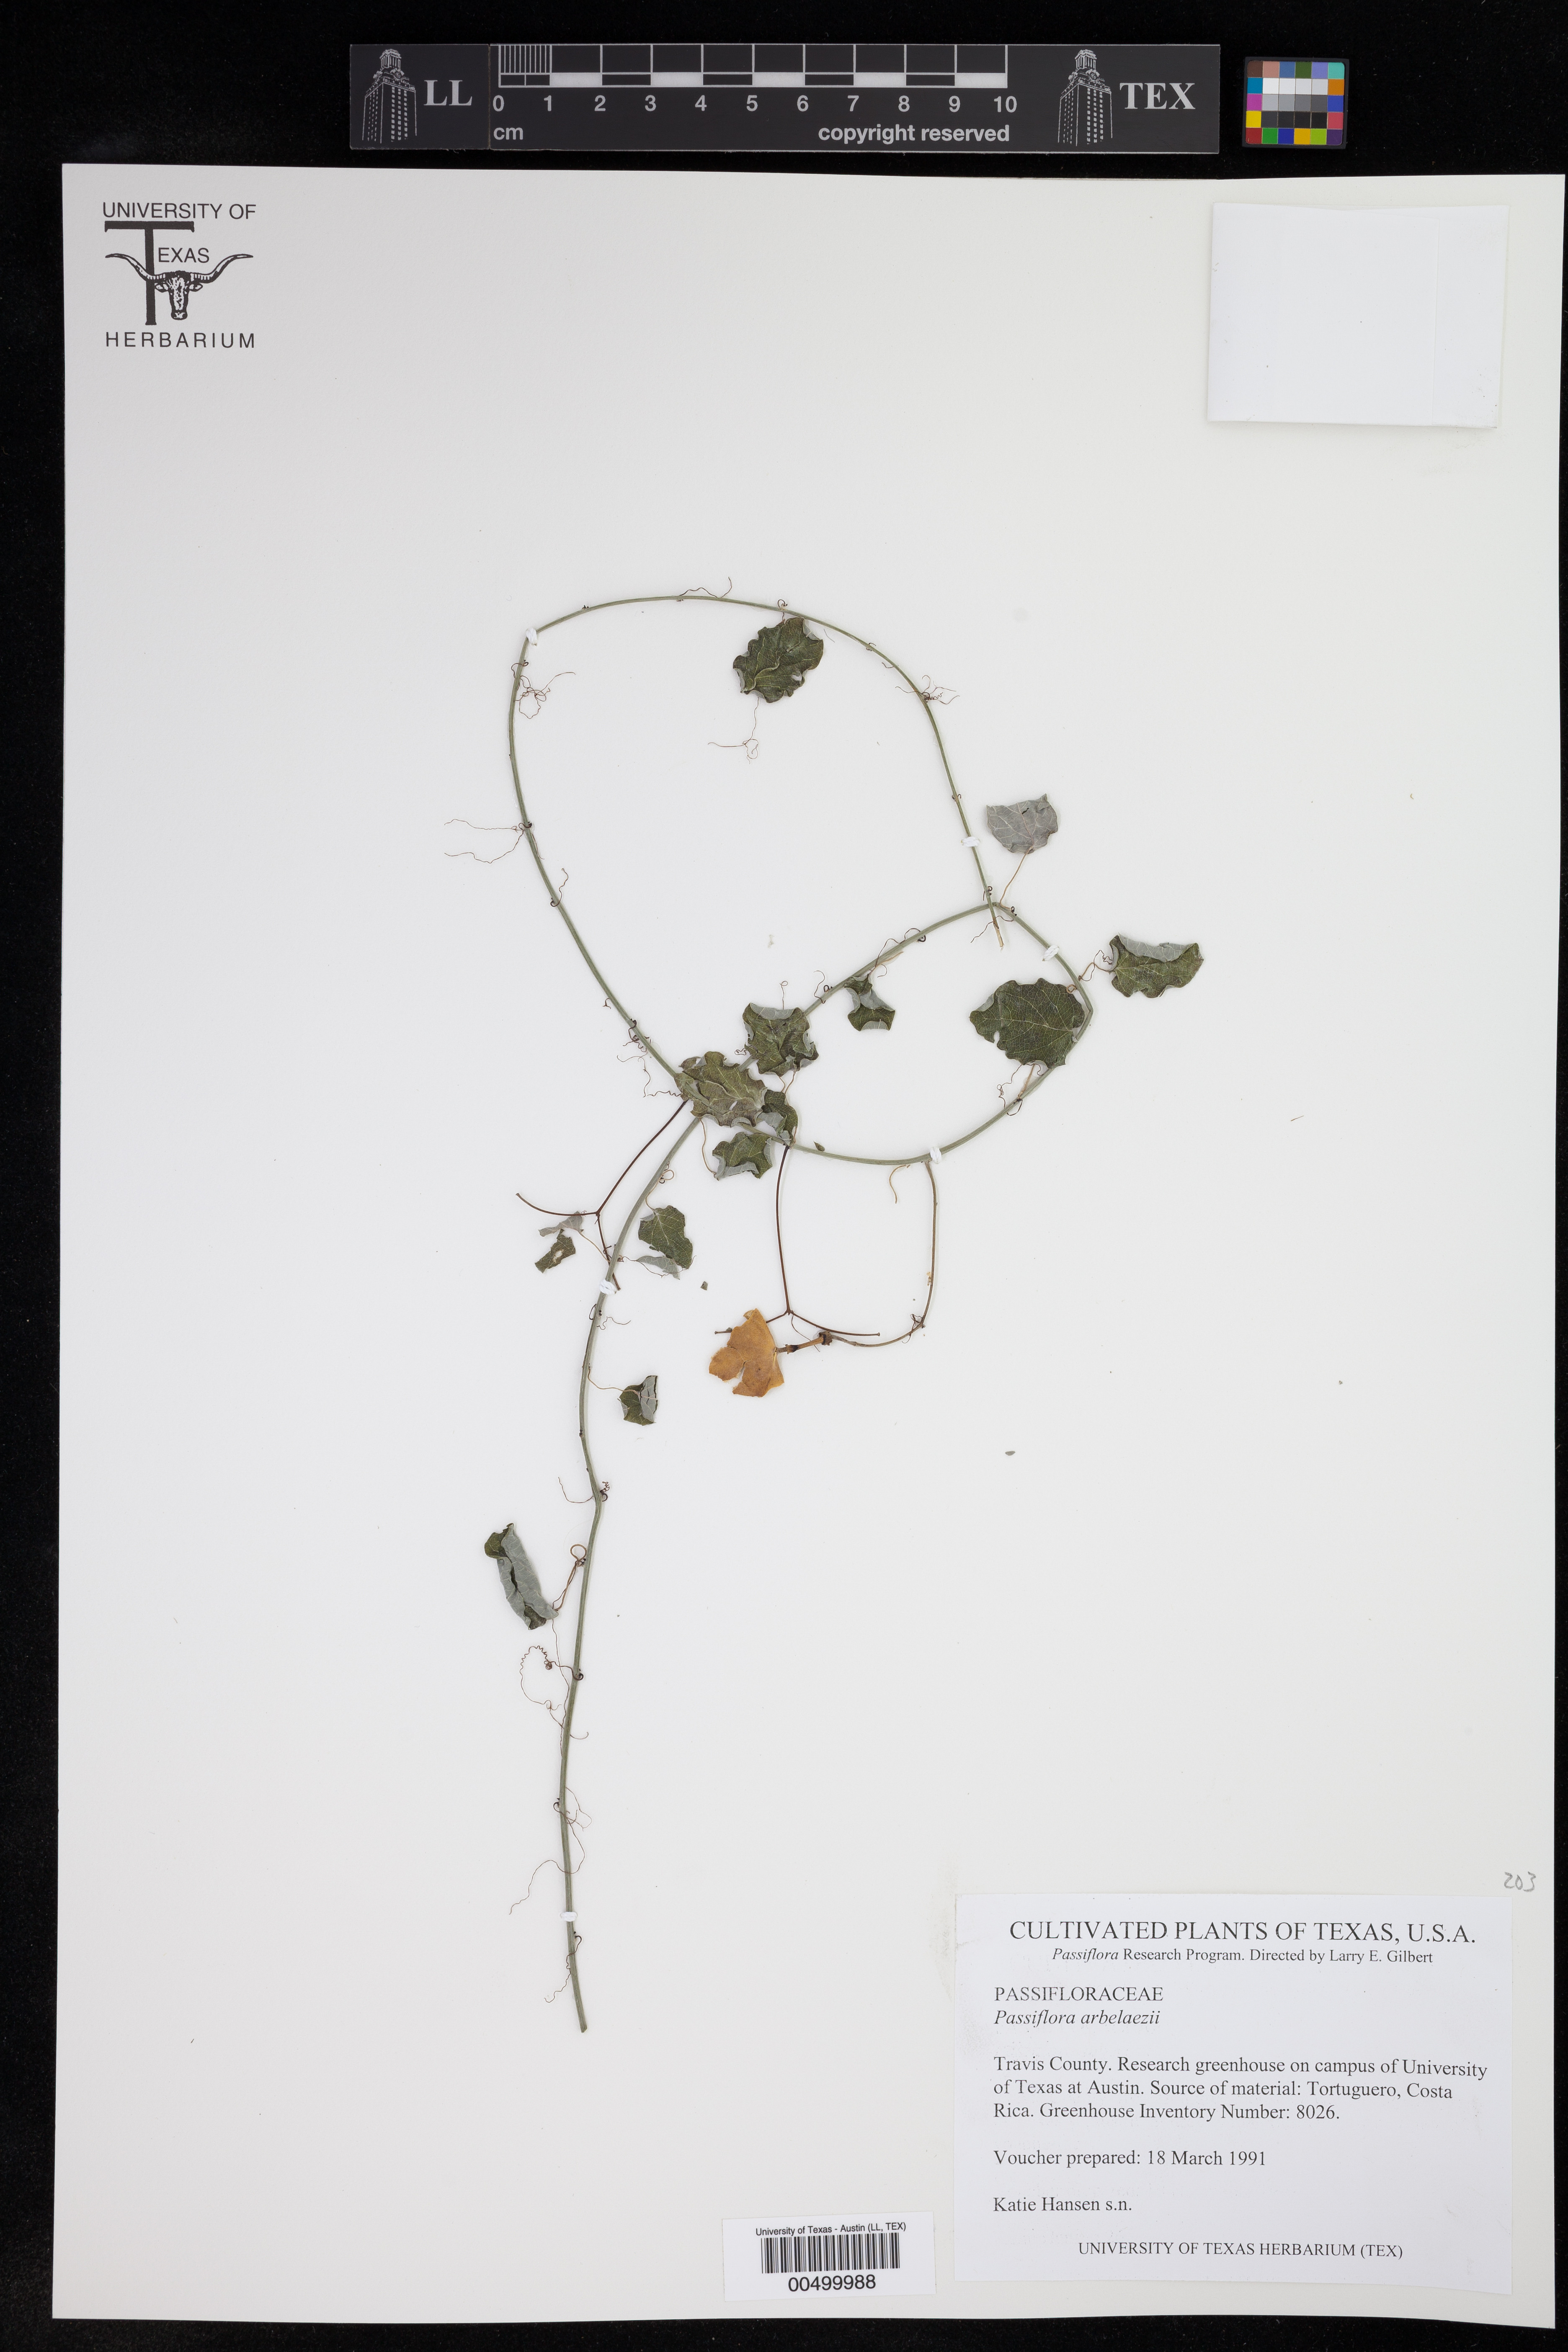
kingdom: Plantae
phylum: Tracheophyta
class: Magnoliopsida
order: Malpighiales
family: Passifloraceae
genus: Passiflora
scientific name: Passiflora arbelaezii
